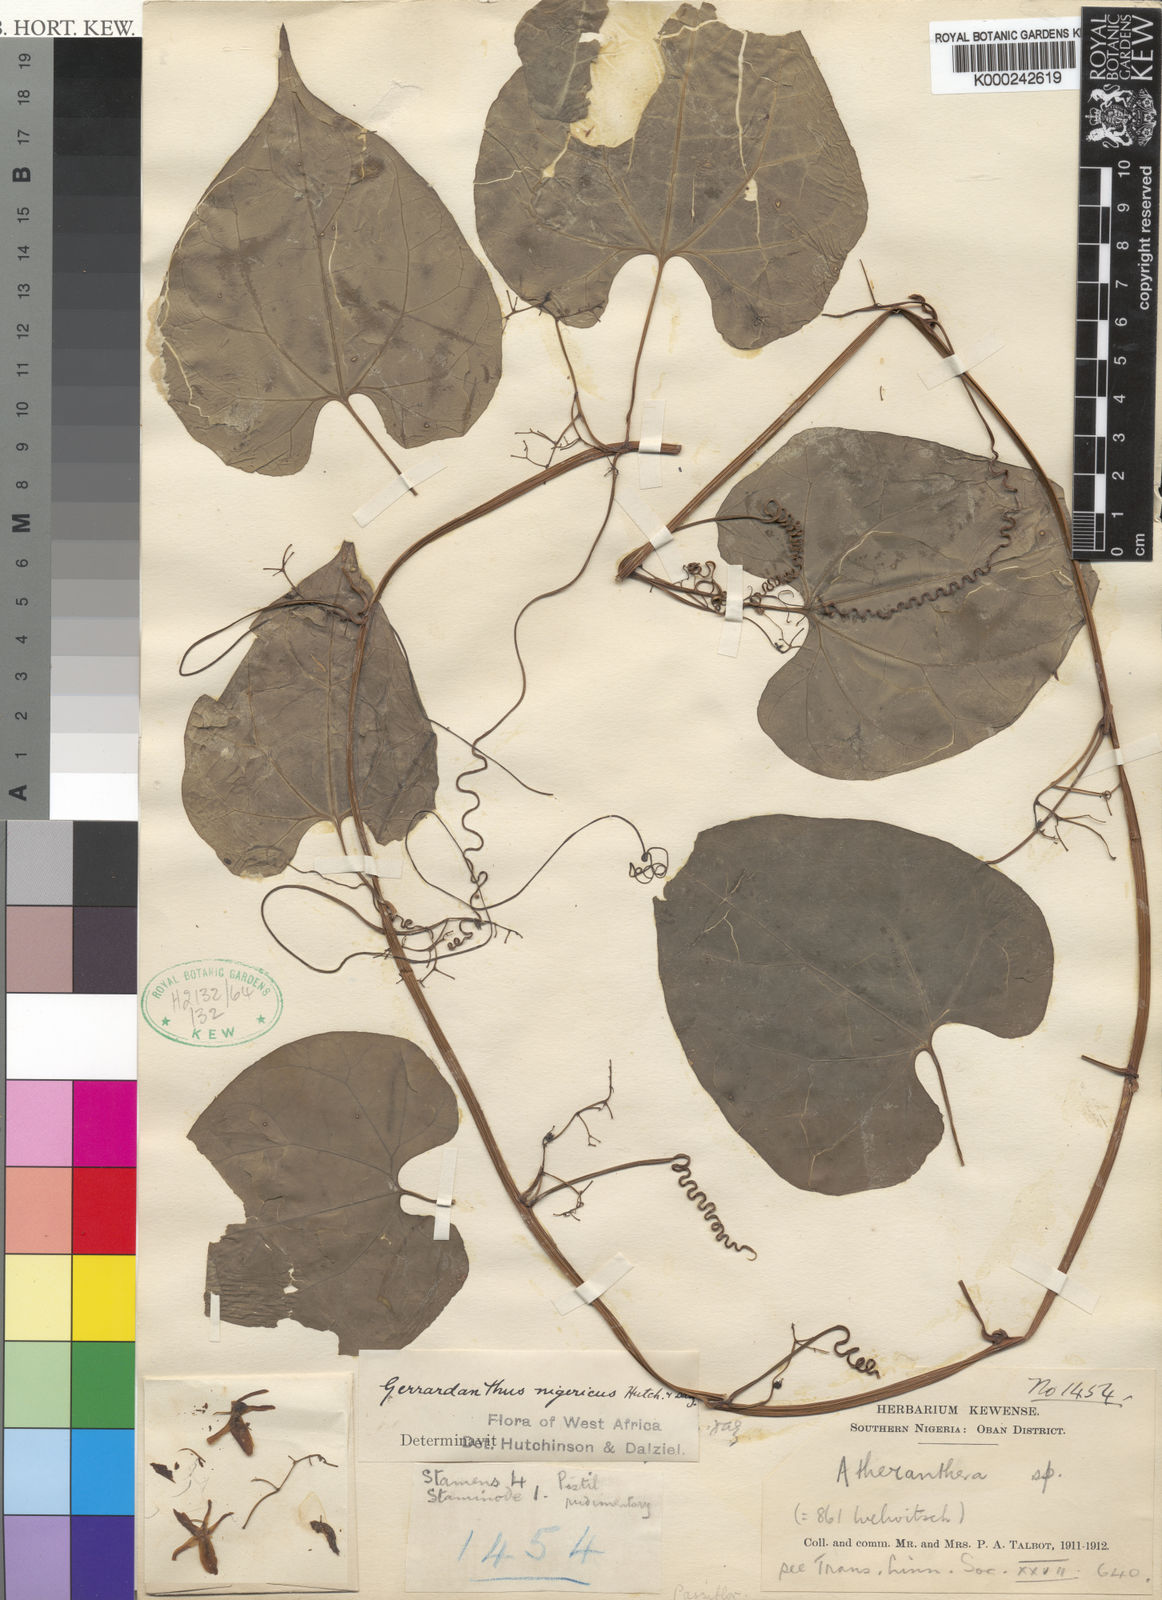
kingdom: Plantae
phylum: Tracheophyta
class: Magnoliopsida
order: Cucurbitales
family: Cucurbitaceae
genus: Gerrardanthus
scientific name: Gerrardanthus paniculatus
